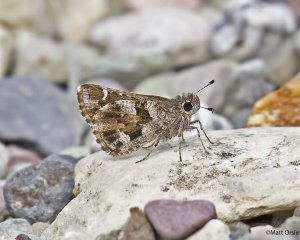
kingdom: Animalia
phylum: Arthropoda
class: Insecta
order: Lepidoptera
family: Hesperiidae
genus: Mastor
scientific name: Mastor nysa
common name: Nysa Roadside-Skipper
